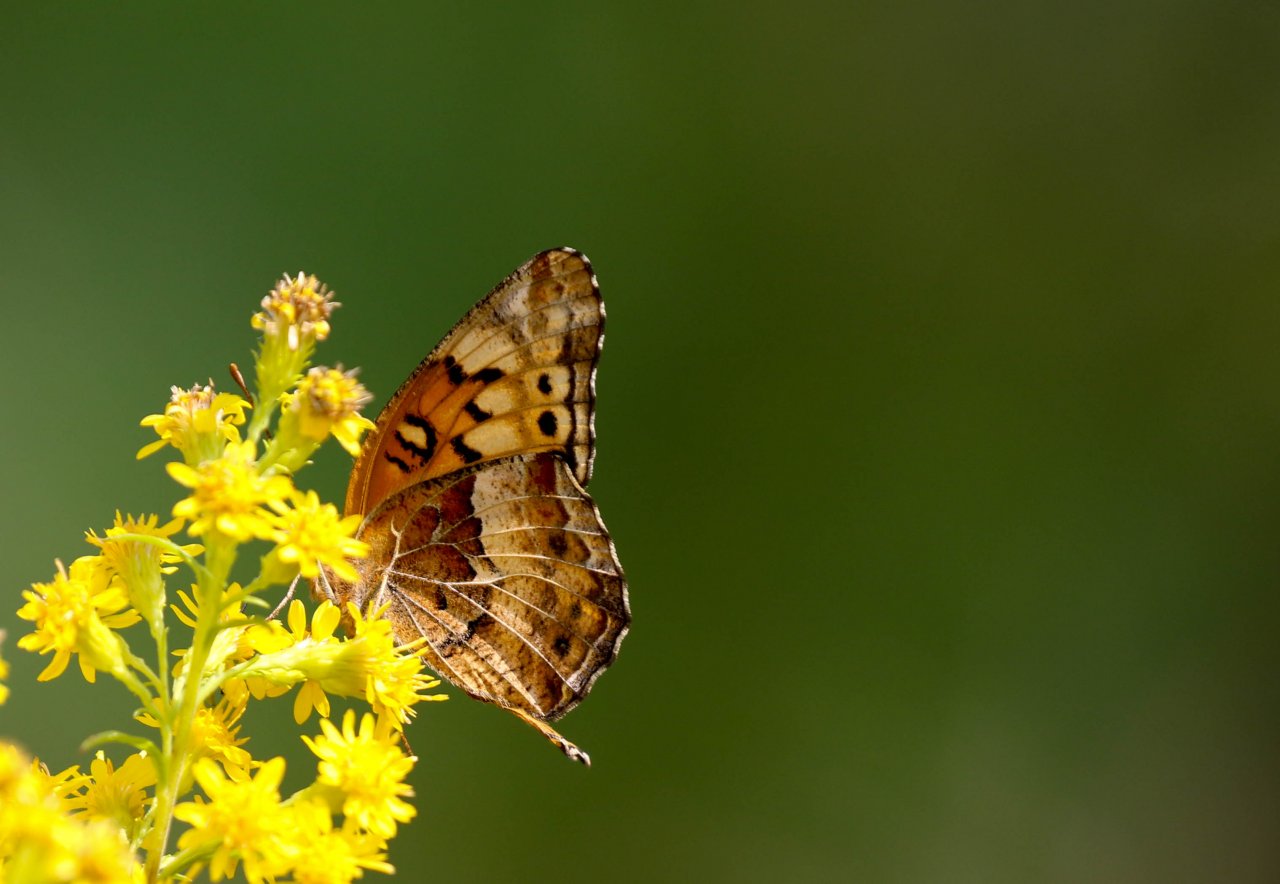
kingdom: Animalia
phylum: Arthropoda
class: Insecta
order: Lepidoptera
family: Nymphalidae
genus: Euptoieta
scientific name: Euptoieta claudia
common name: Variegated Fritillary
